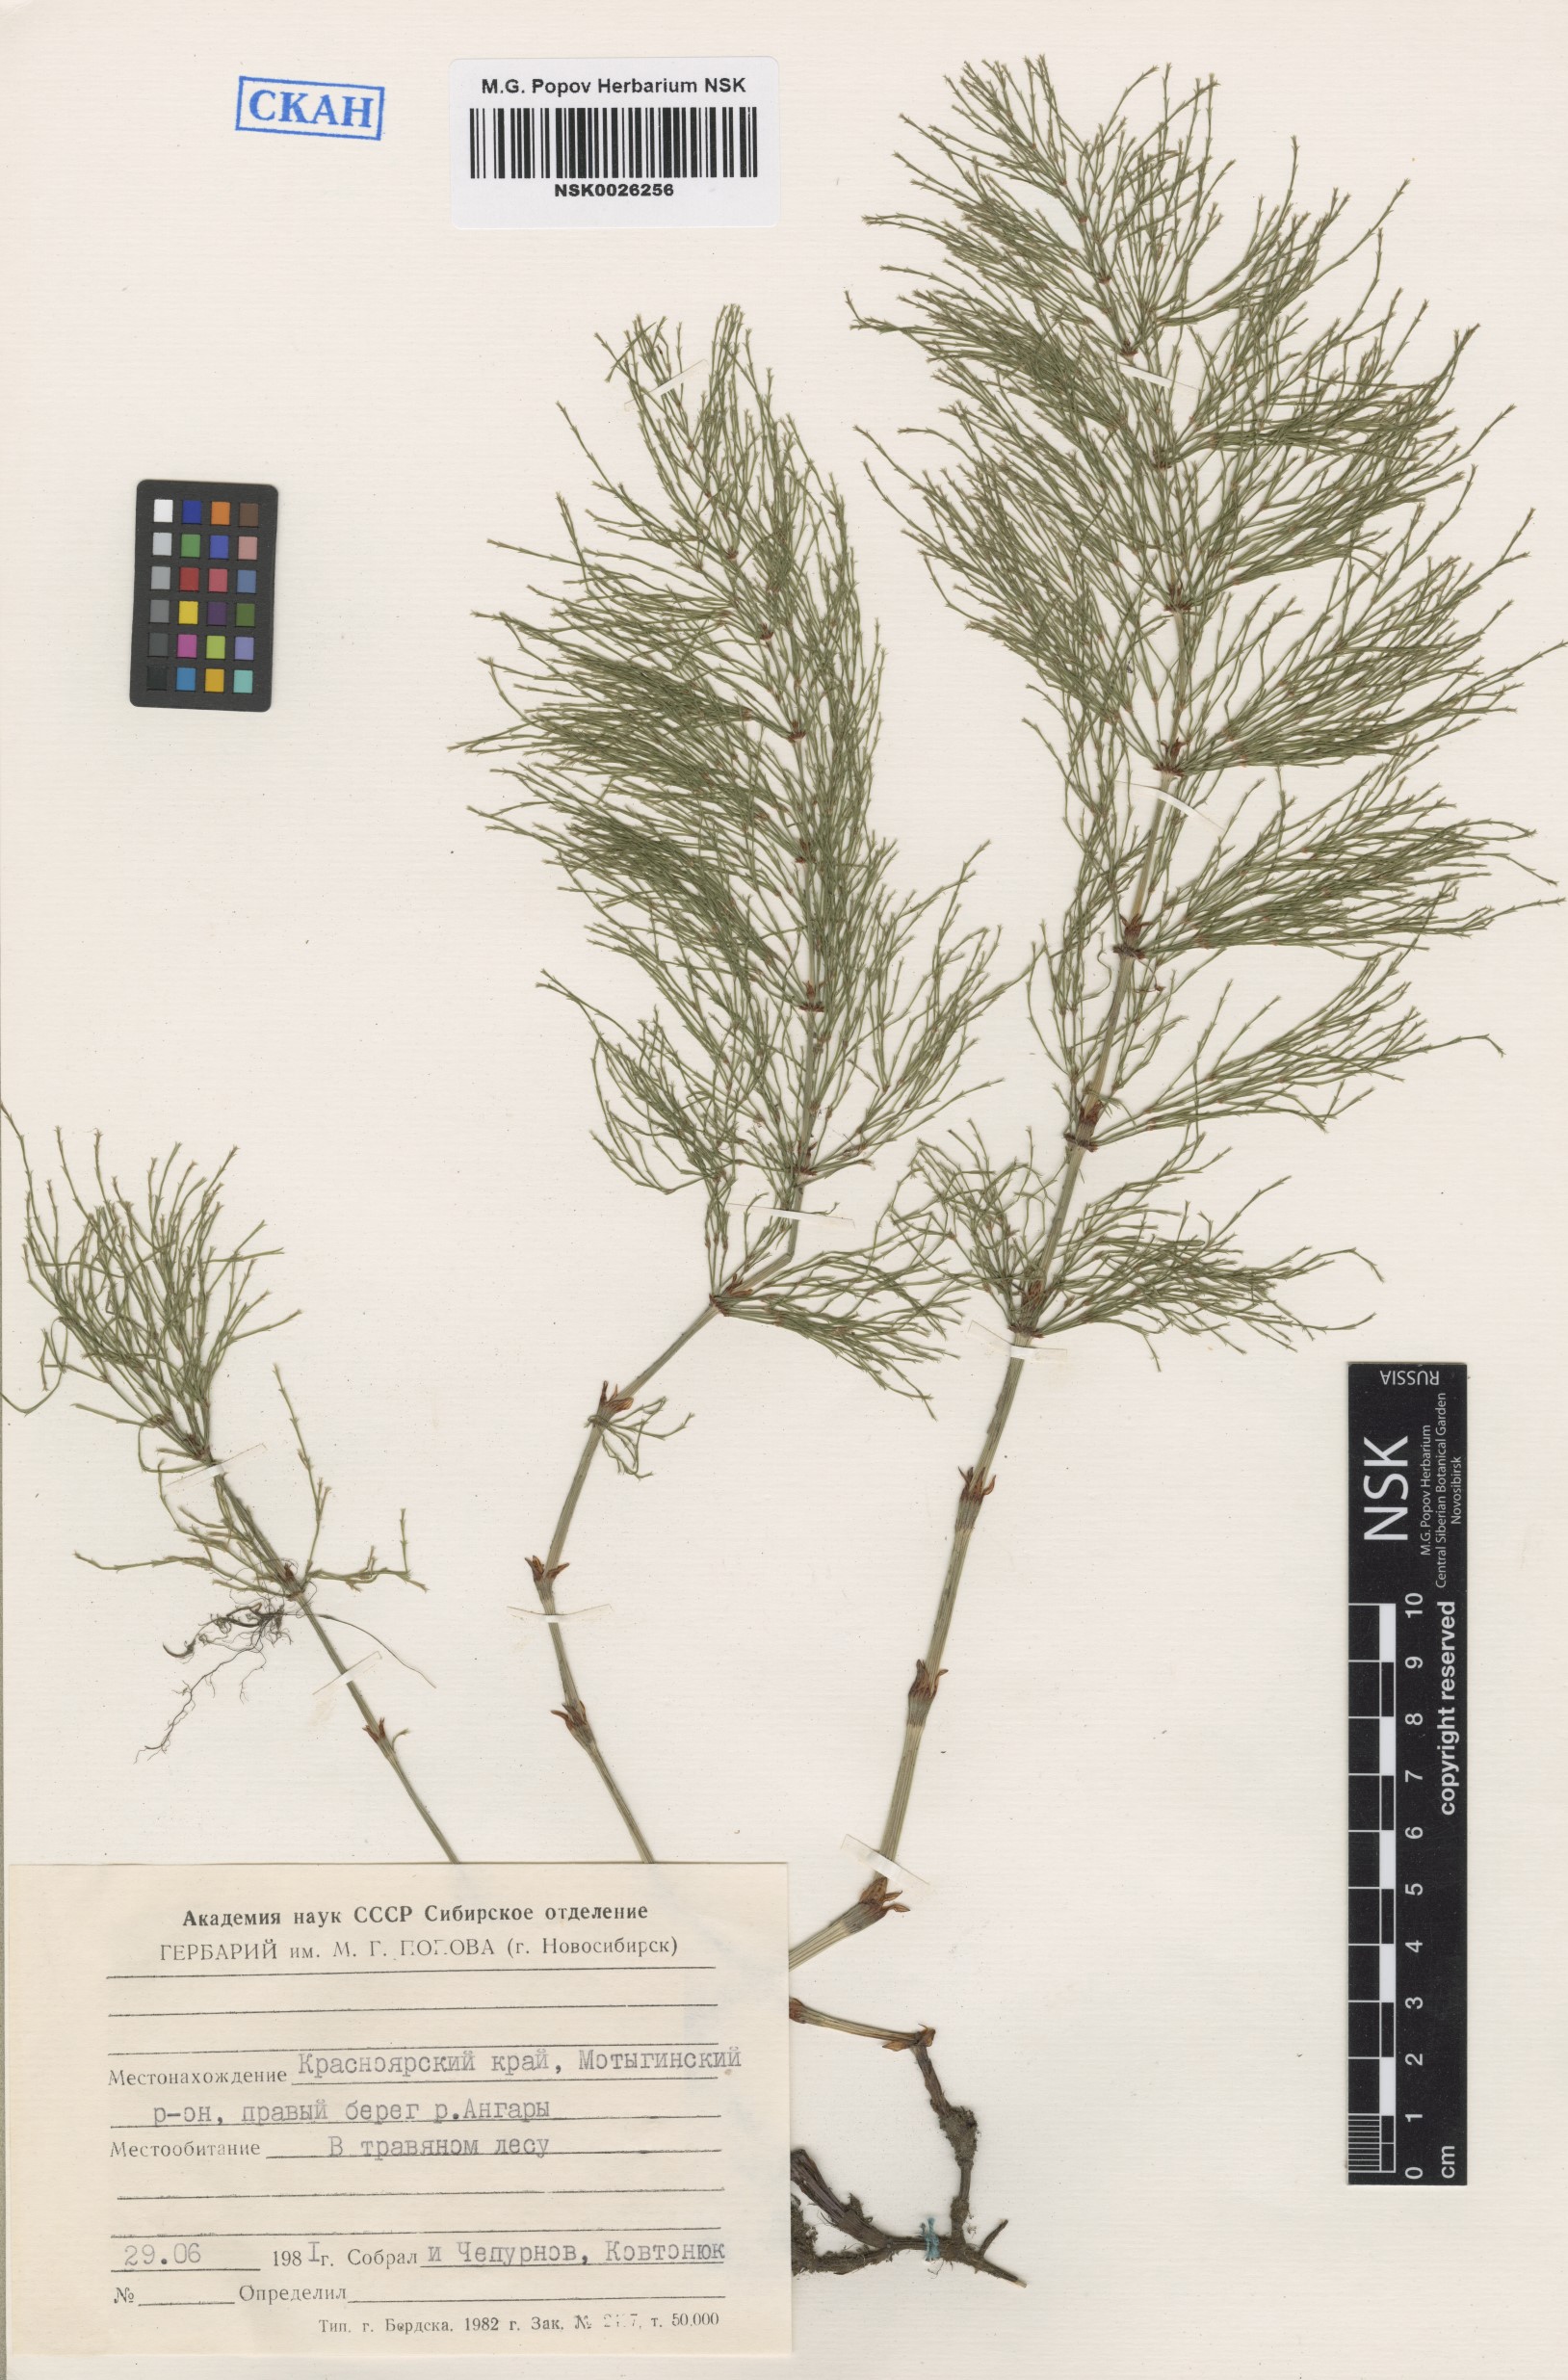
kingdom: Plantae
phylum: Tracheophyta
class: Polypodiopsida
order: Equisetales
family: Equisetaceae
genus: Equisetum
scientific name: Equisetum sylvaticum
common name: Wood horsetail
